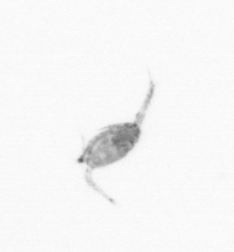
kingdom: Animalia
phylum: Arthropoda
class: Copepoda
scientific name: Copepoda
